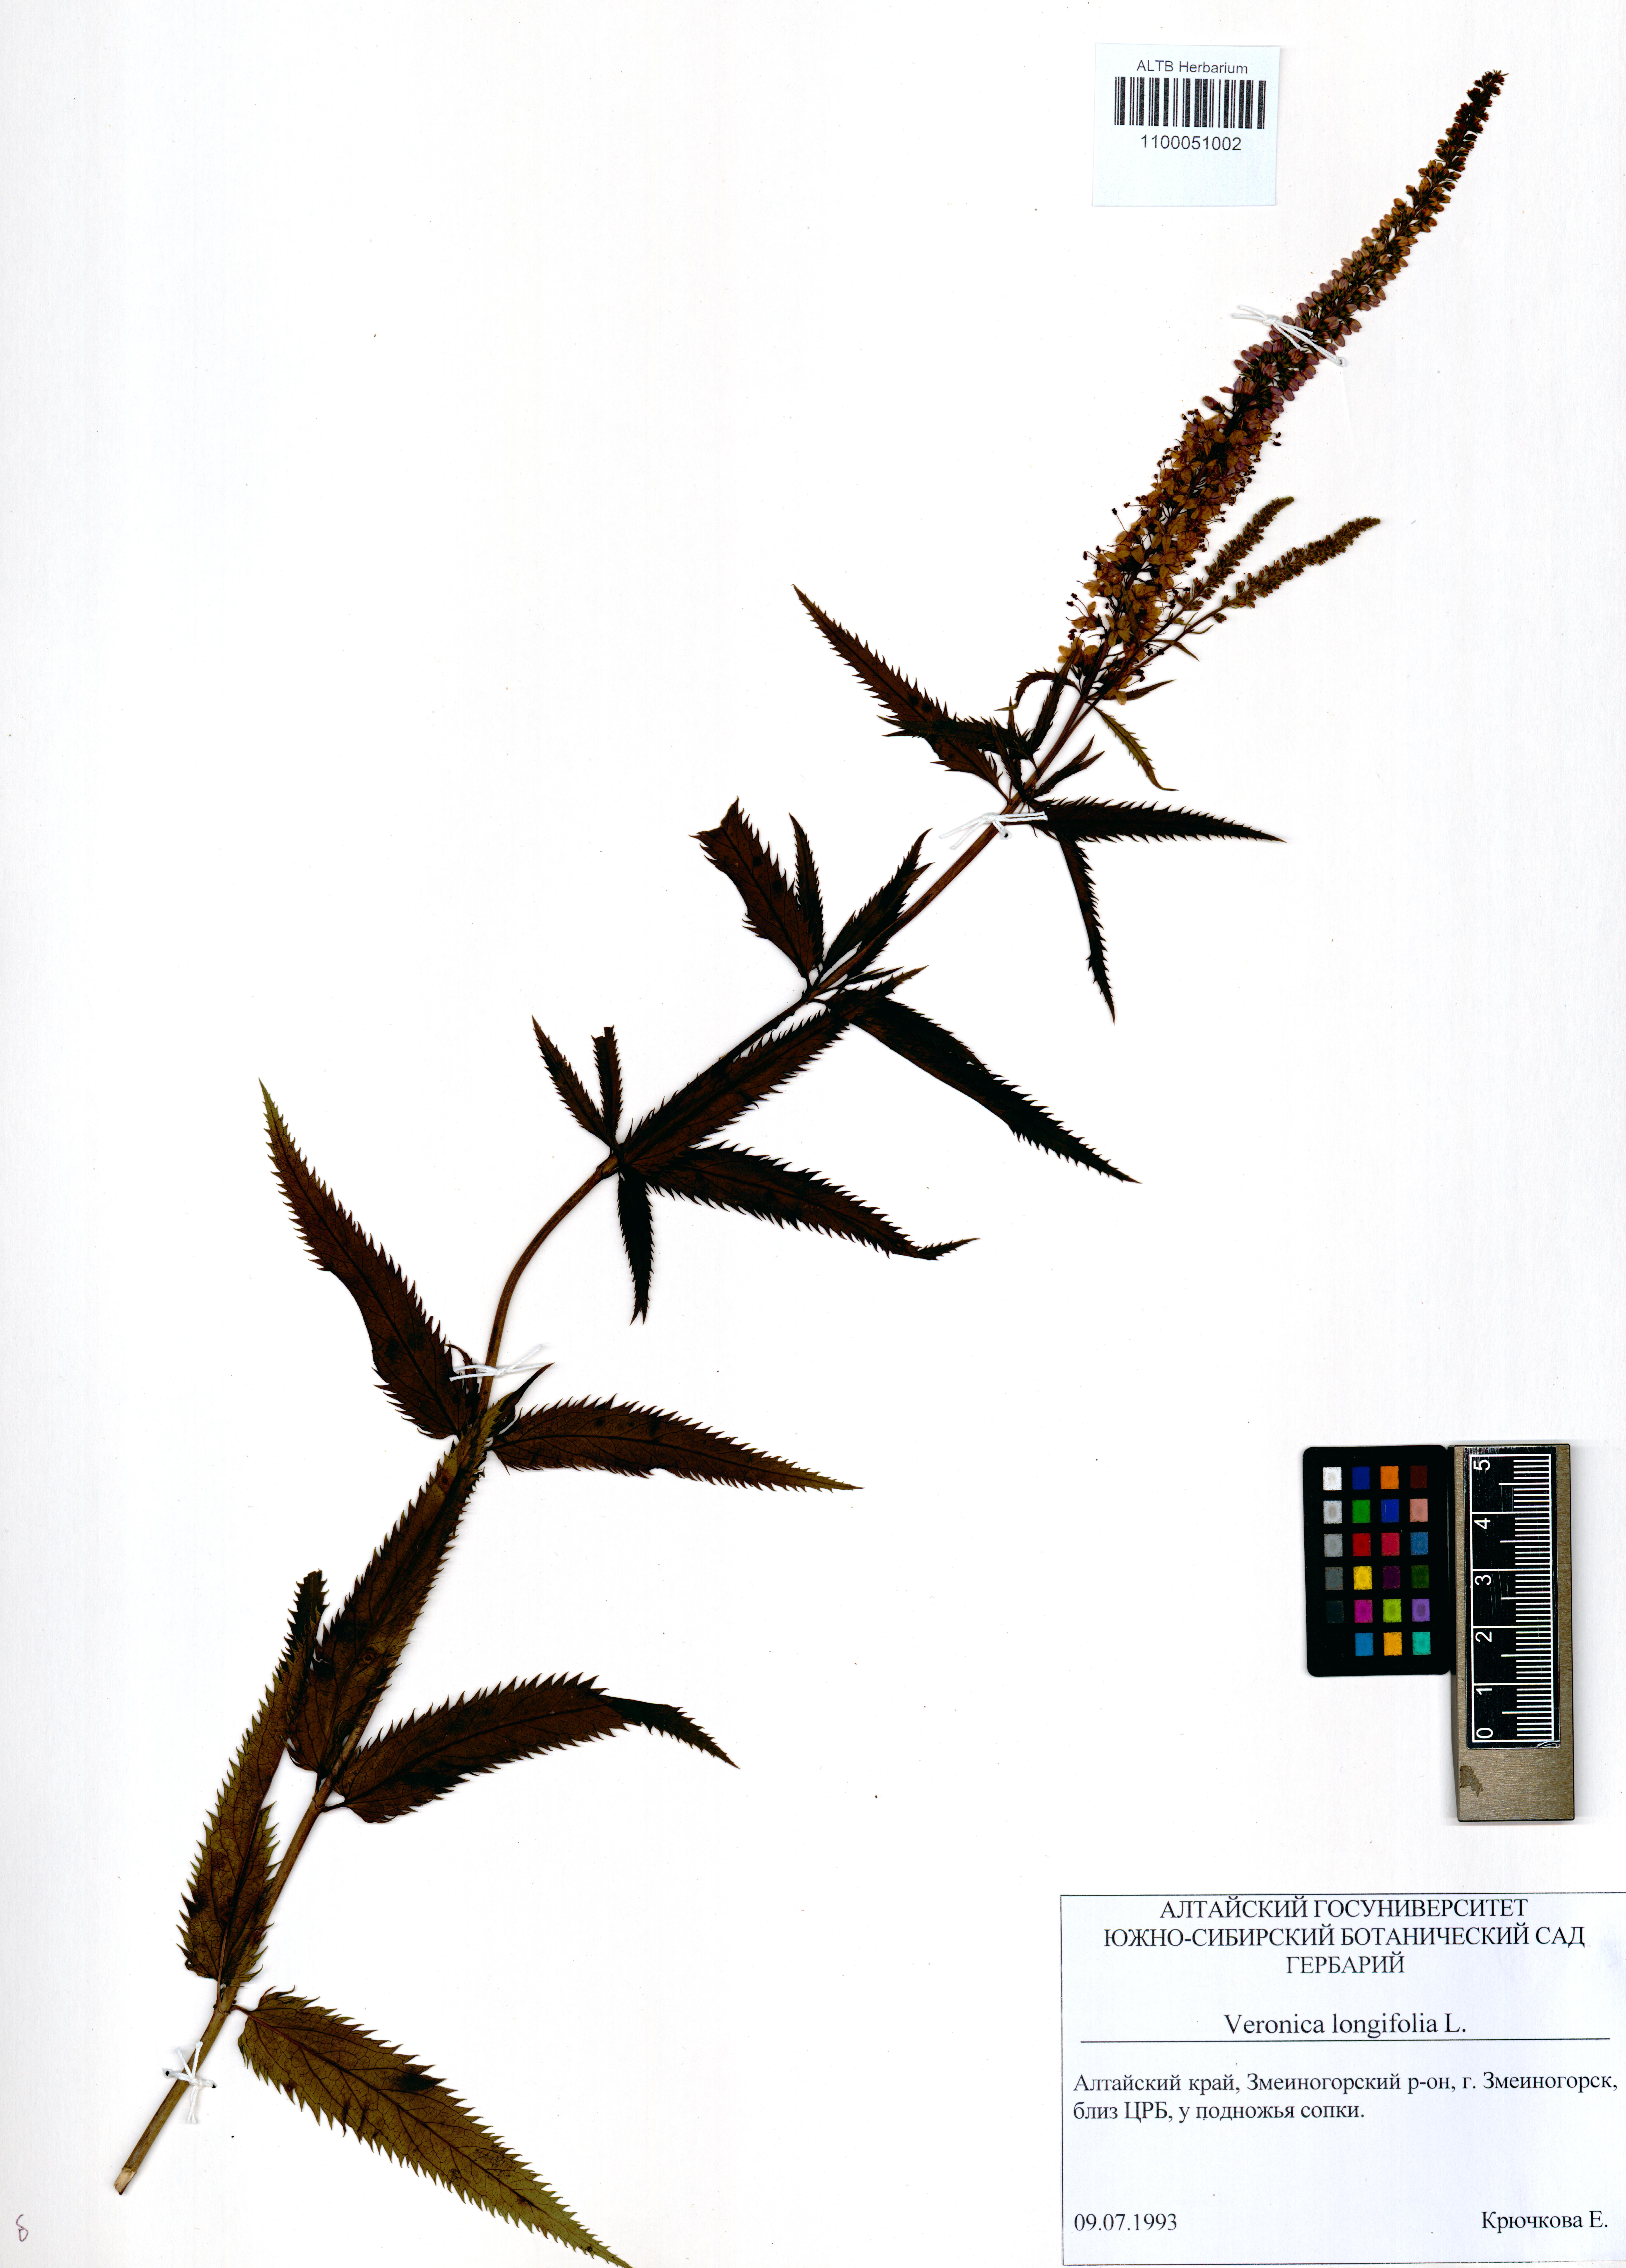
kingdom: Plantae
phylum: Tracheophyta
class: Magnoliopsida
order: Lamiales
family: Plantaginaceae
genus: Veronica
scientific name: Veronica longifolia
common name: Garden speedwell
